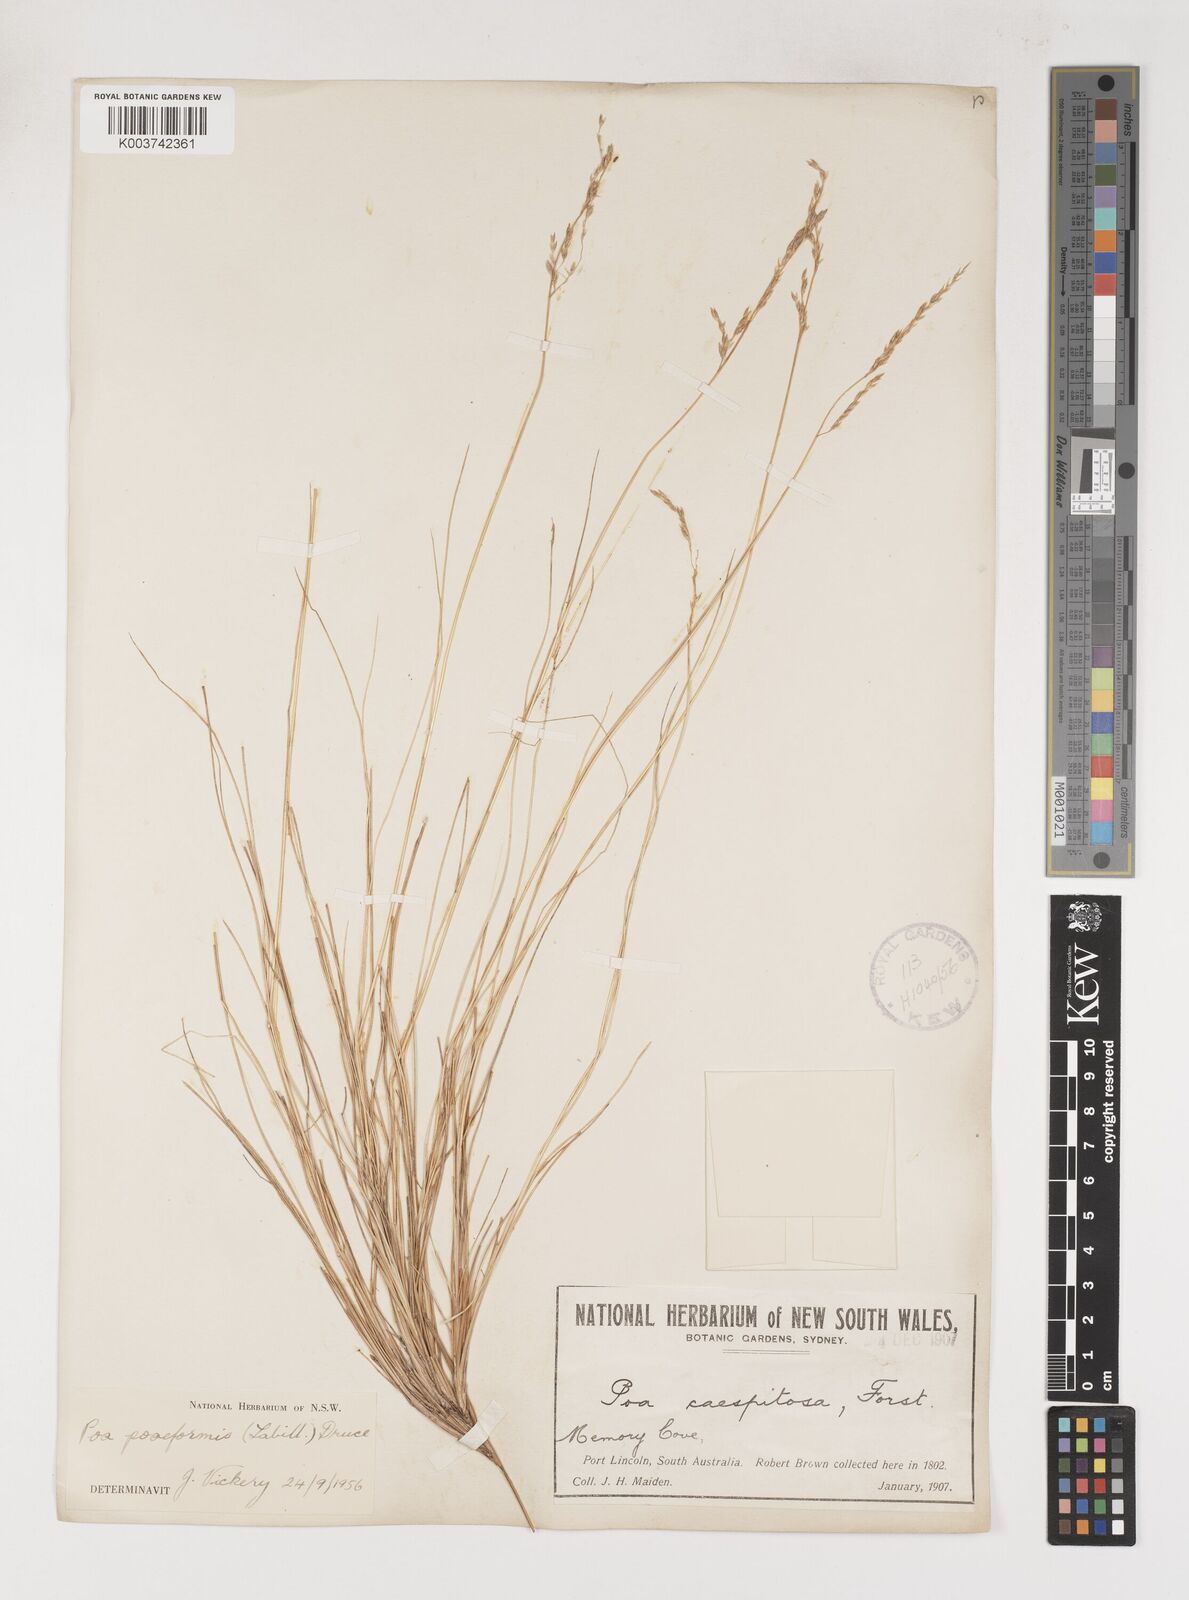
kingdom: Plantae
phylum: Tracheophyta
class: Liliopsida
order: Poales
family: Poaceae
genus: Poa
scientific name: Poa poiformis
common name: Tussock poa
